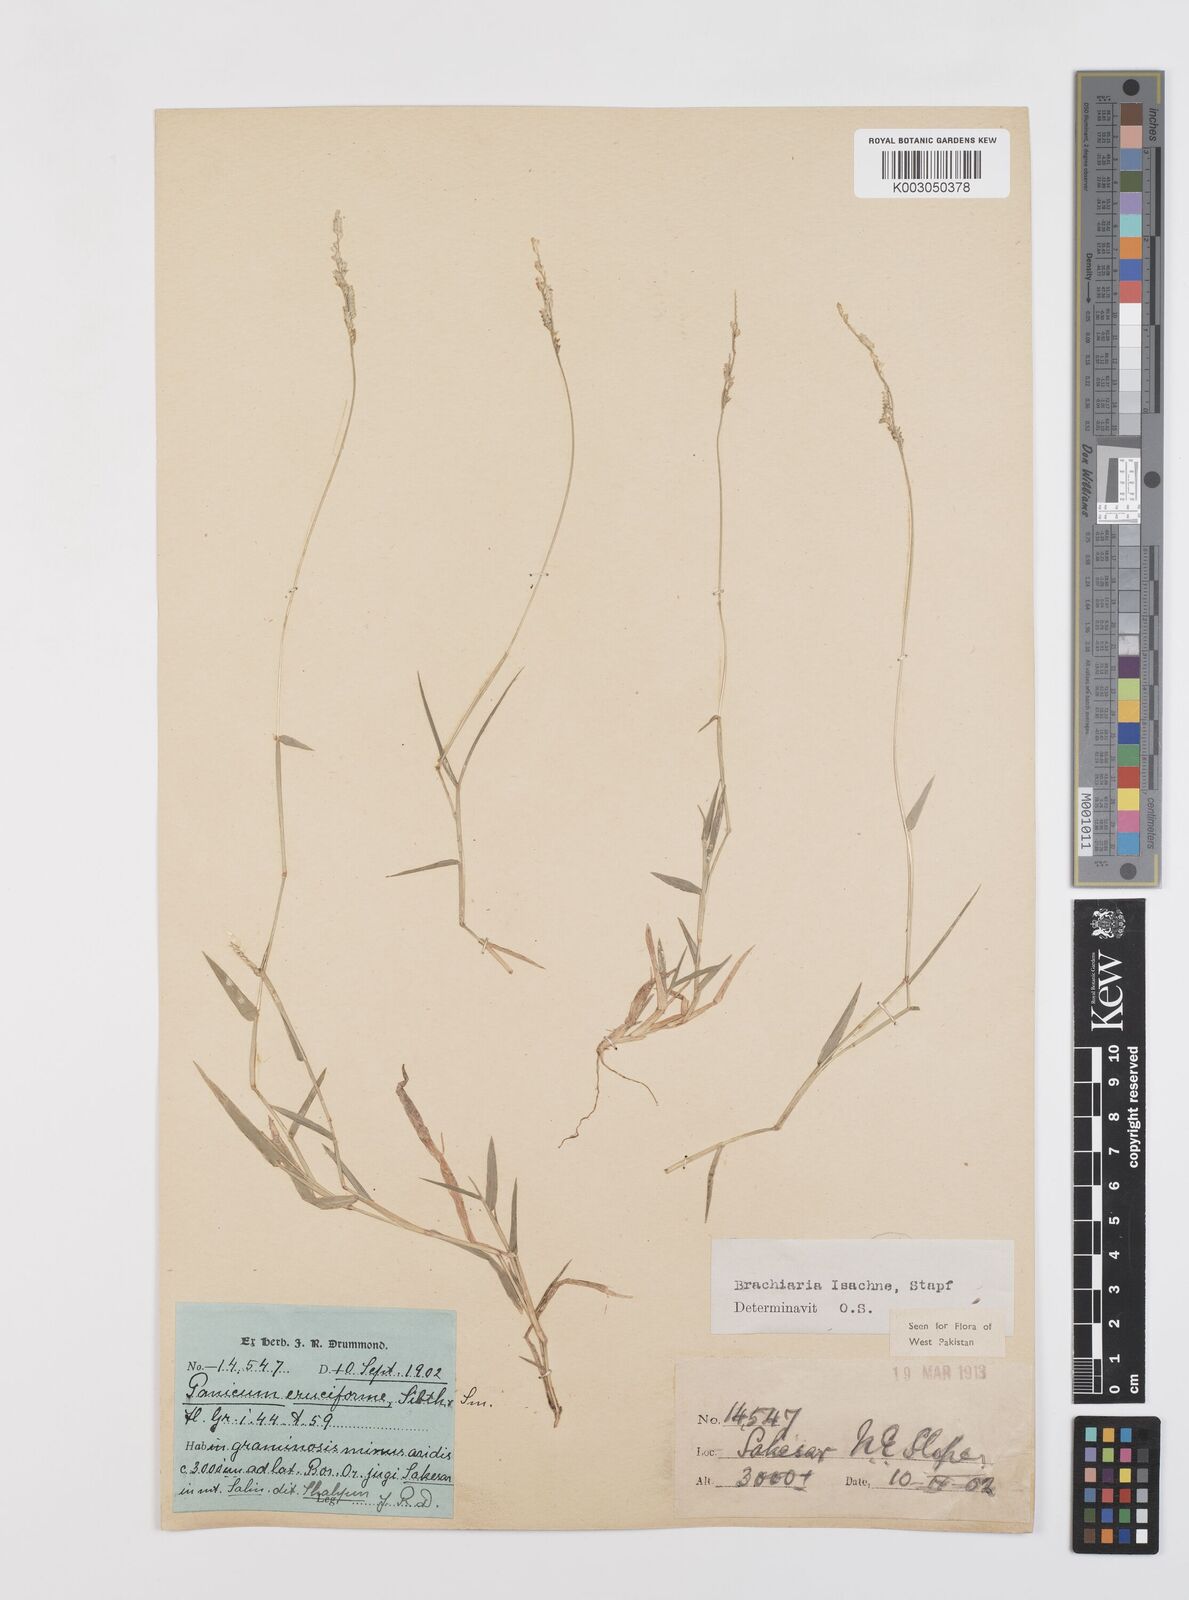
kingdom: Plantae
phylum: Tracheophyta
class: Liliopsida
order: Poales
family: Poaceae
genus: Moorochloa
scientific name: Moorochloa eruciformis
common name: Sweet signalgrass
